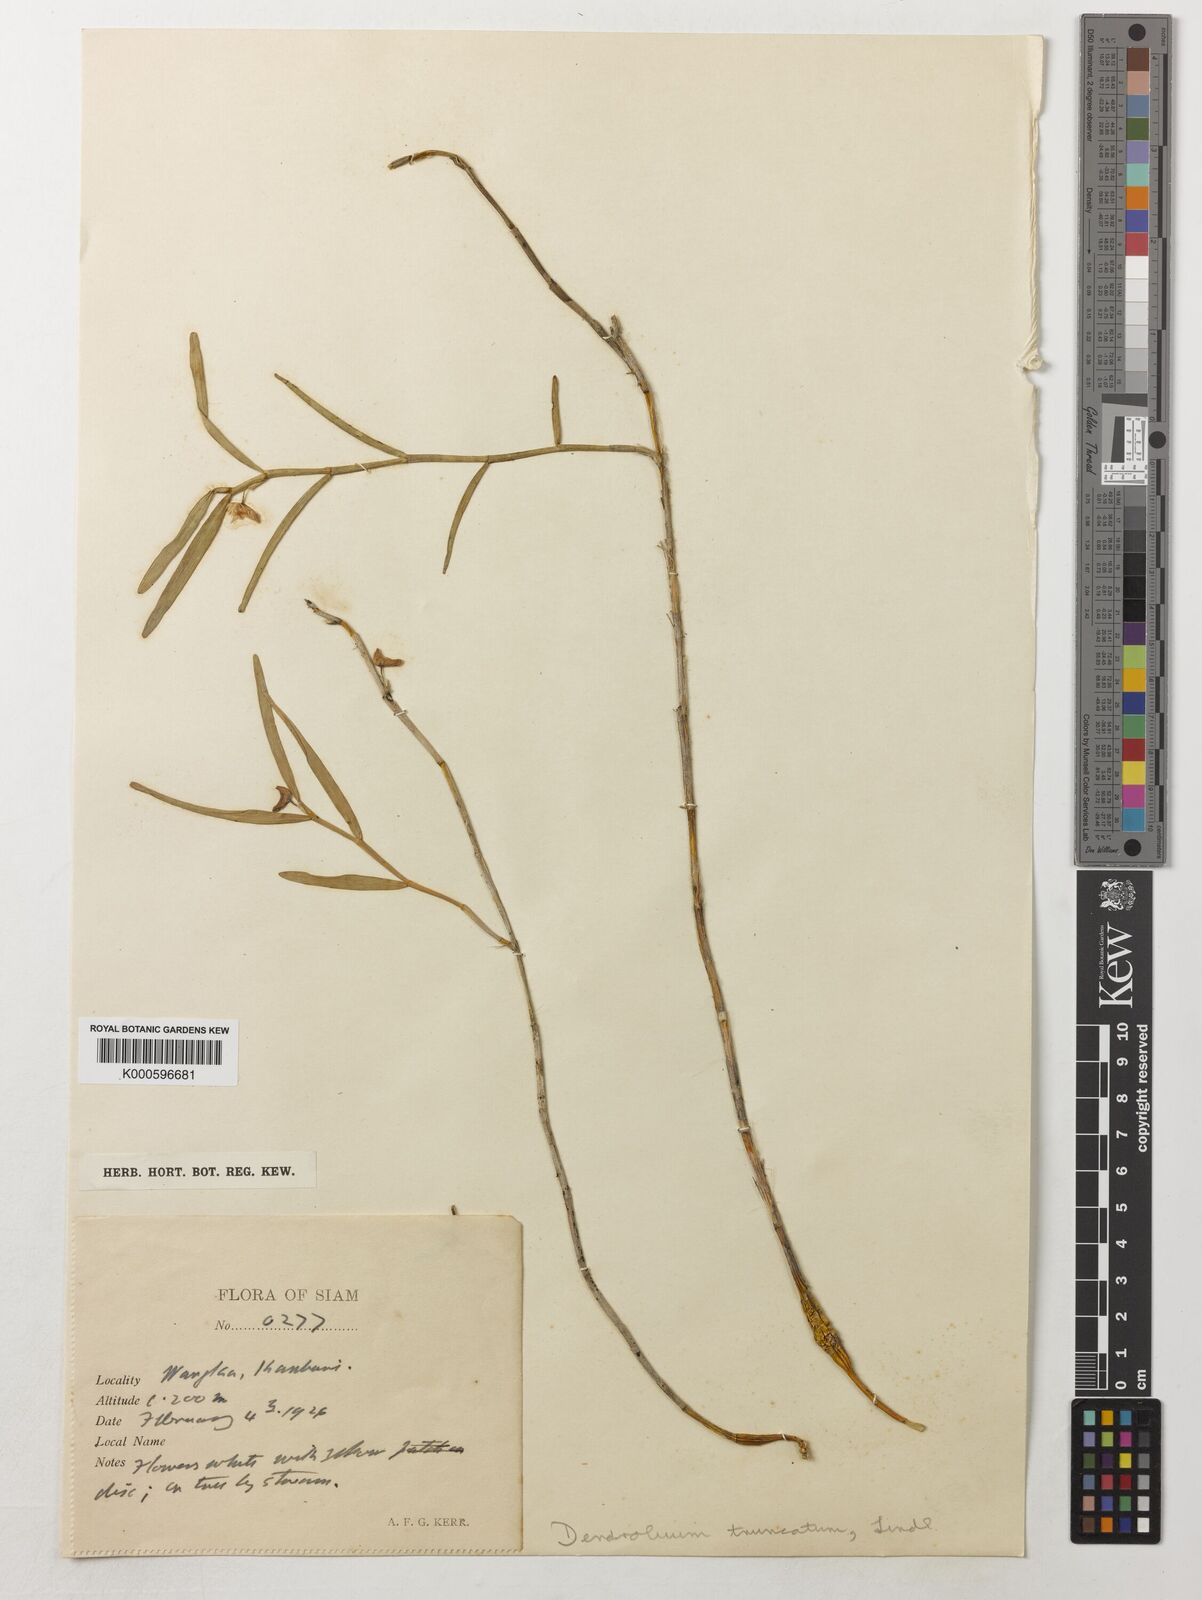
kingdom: Plantae
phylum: Tracheophyta
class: Liliopsida
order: Asparagales
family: Orchidaceae
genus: Dendrobium
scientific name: Dendrobium truncatum
